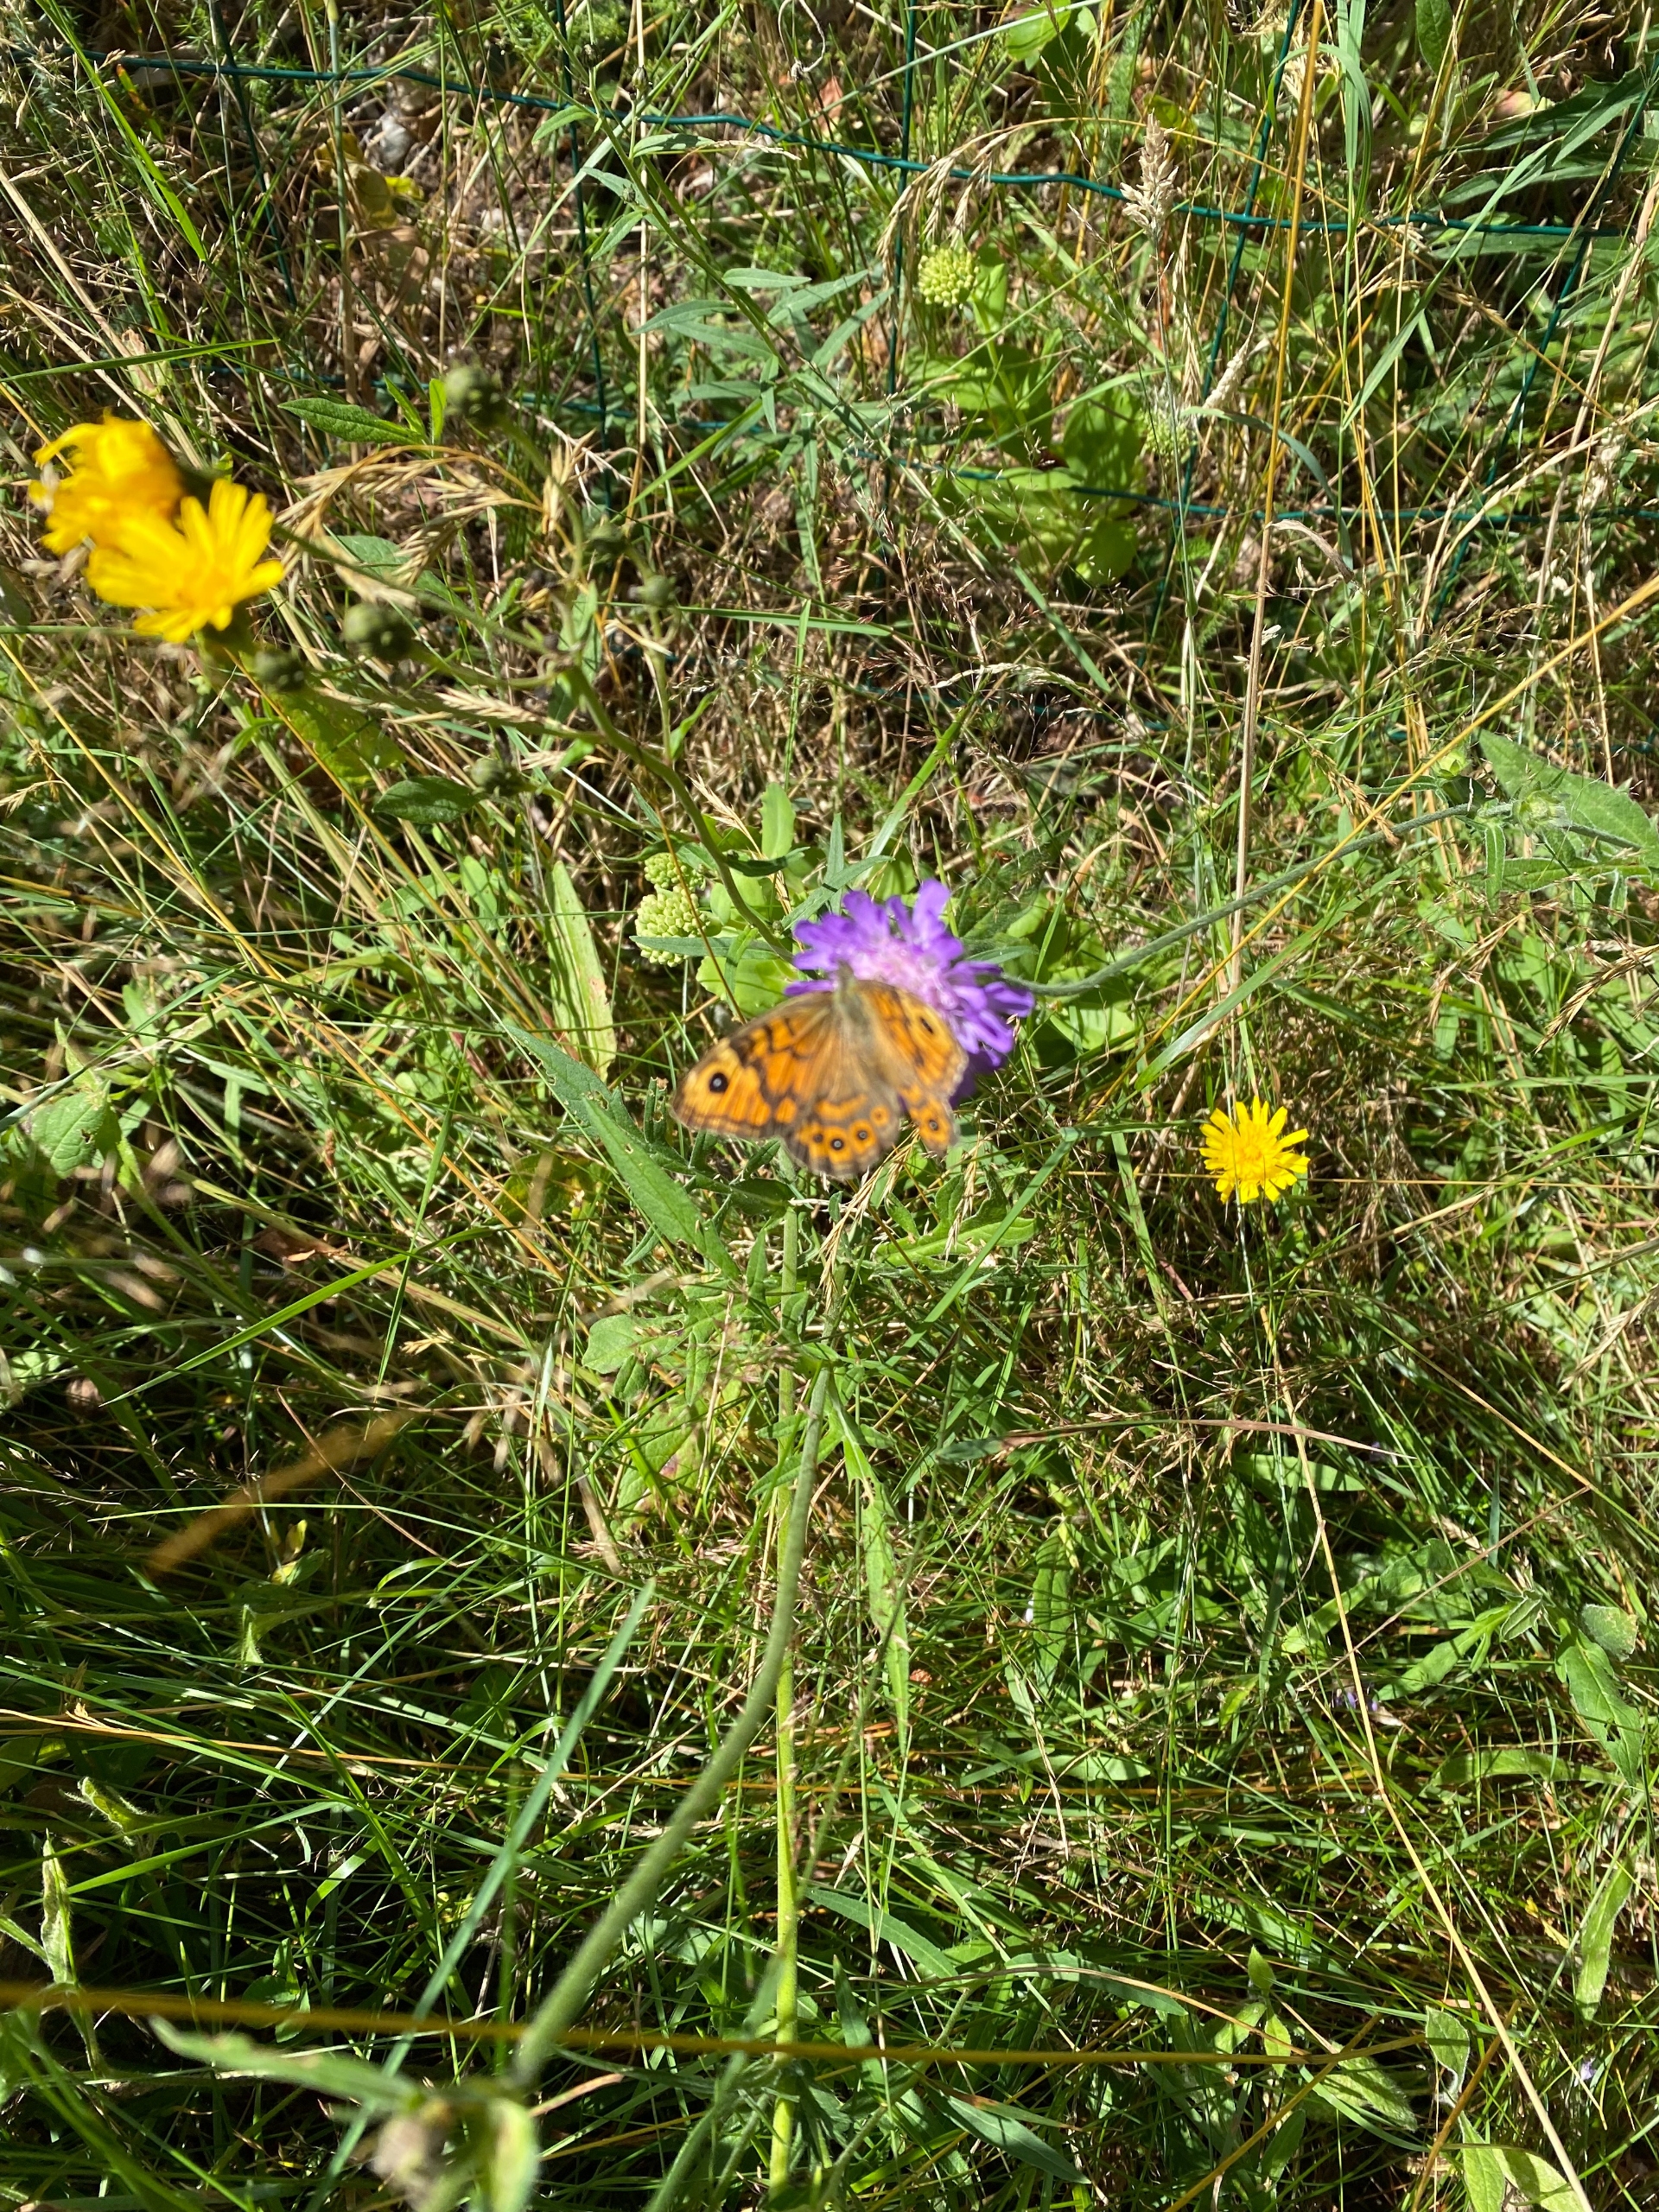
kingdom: Animalia
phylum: Arthropoda
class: Insecta
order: Lepidoptera
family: Nymphalidae
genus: Pararge
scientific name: Pararge Lasiommata megera
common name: Vejrandøje
